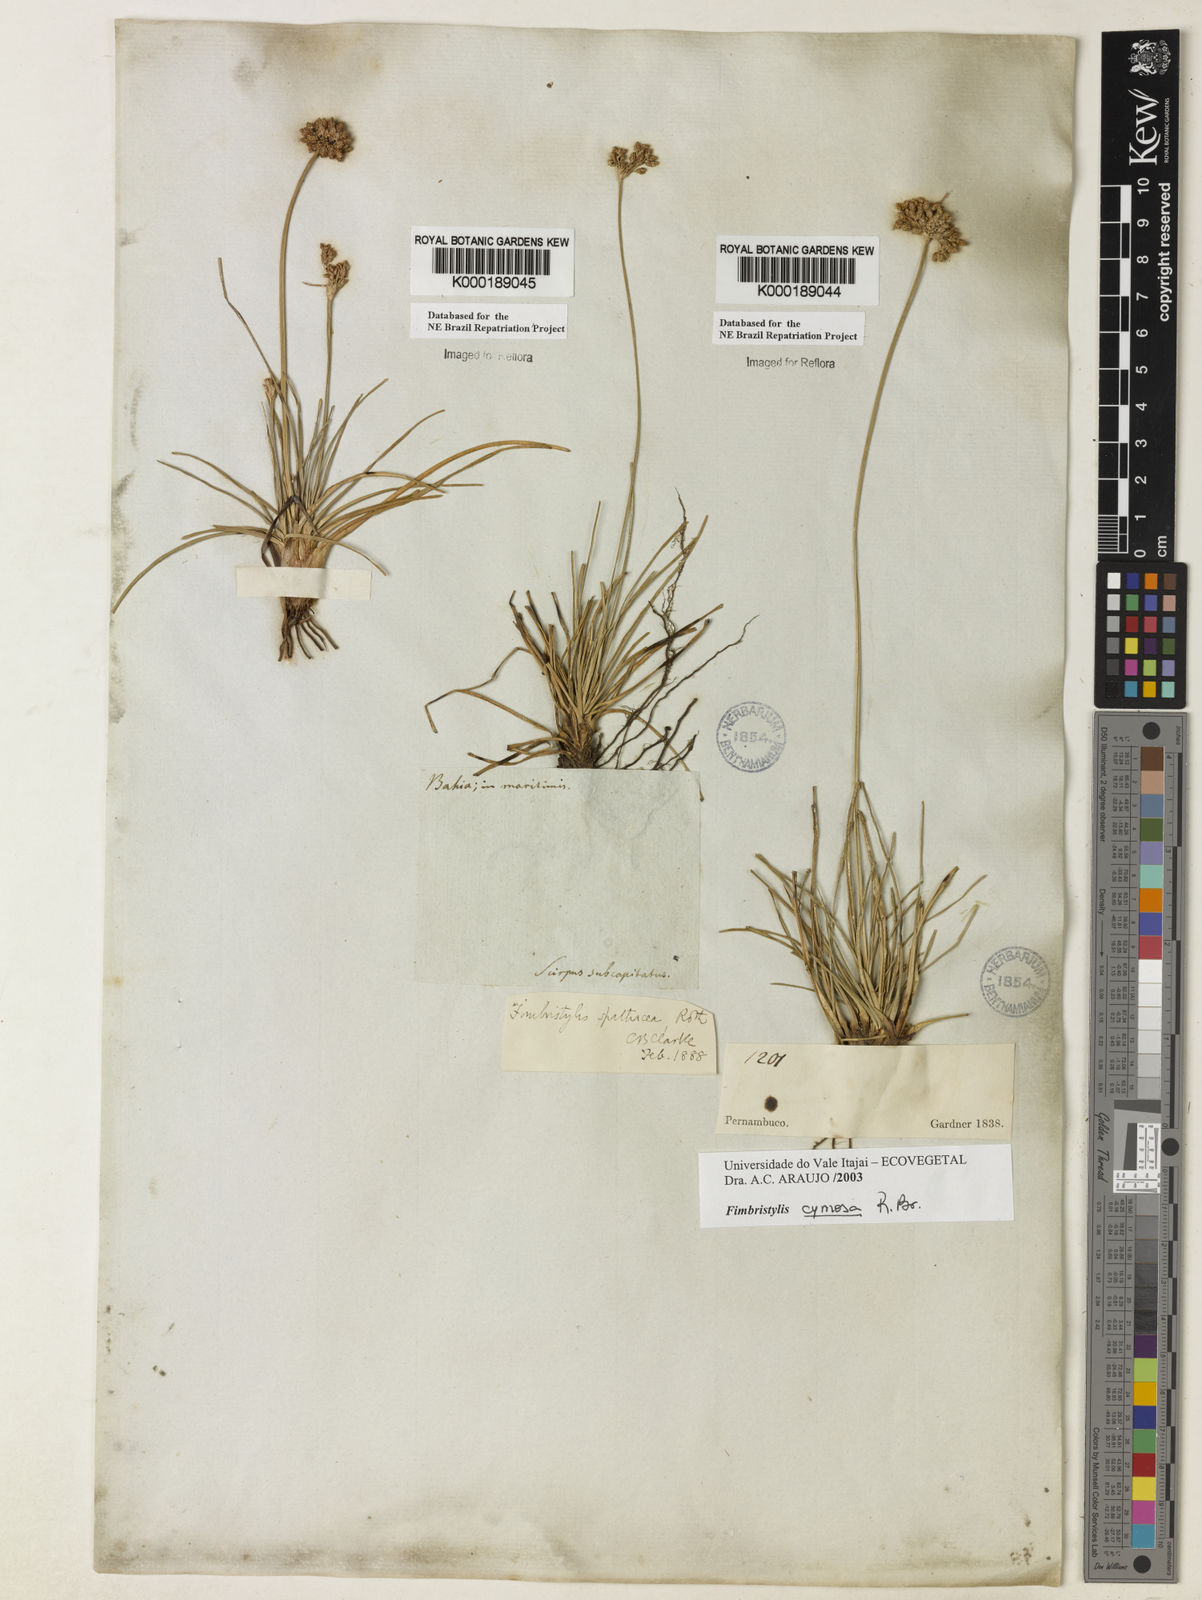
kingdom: Plantae
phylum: Tracheophyta
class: Liliopsida
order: Poales
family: Cyperaceae
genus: Fimbristylis
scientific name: Fimbristylis cymosa
